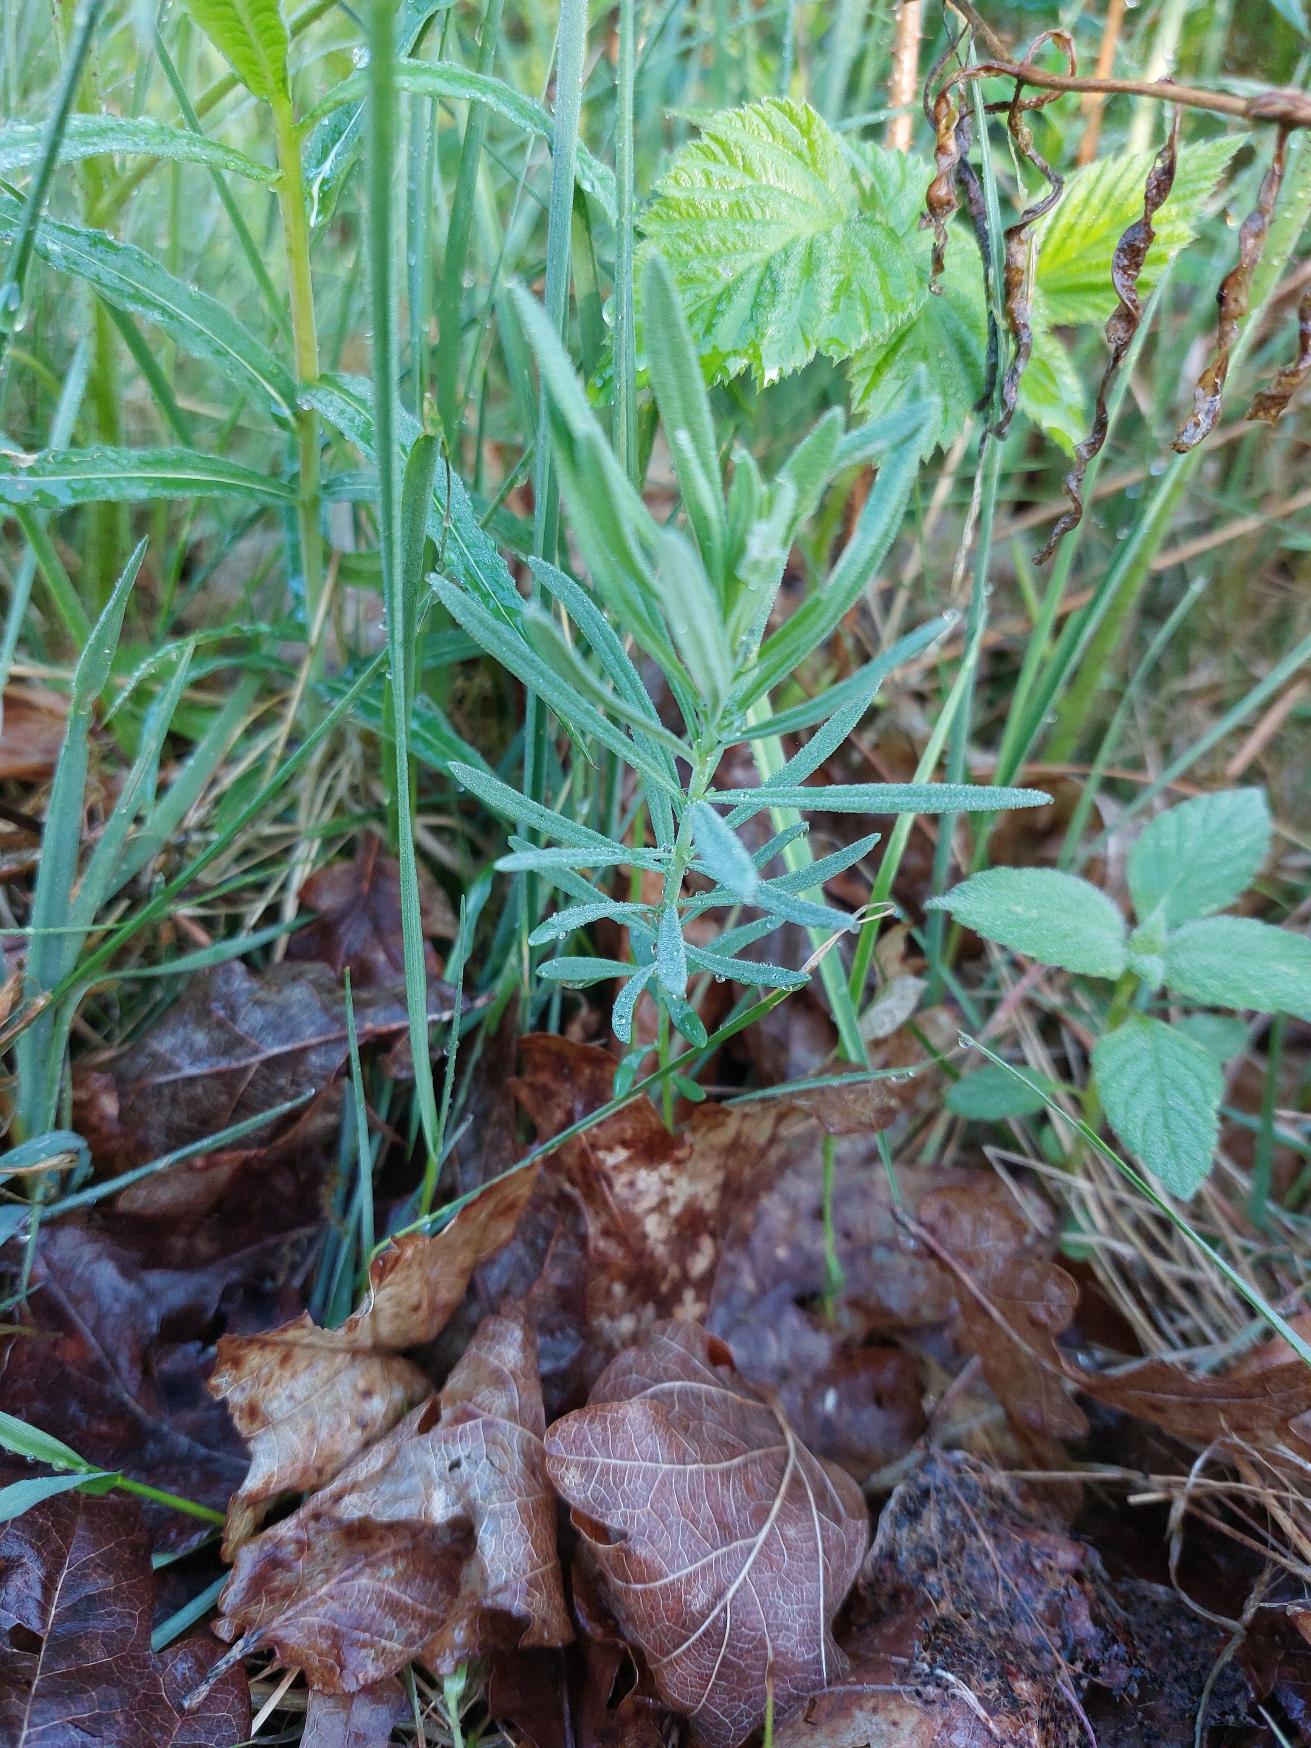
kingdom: Plantae
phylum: Tracheophyta
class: Magnoliopsida
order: Lamiales
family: Plantaginaceae
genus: Linaria
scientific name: Linaria vulgaris
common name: Almindelig torskemund
